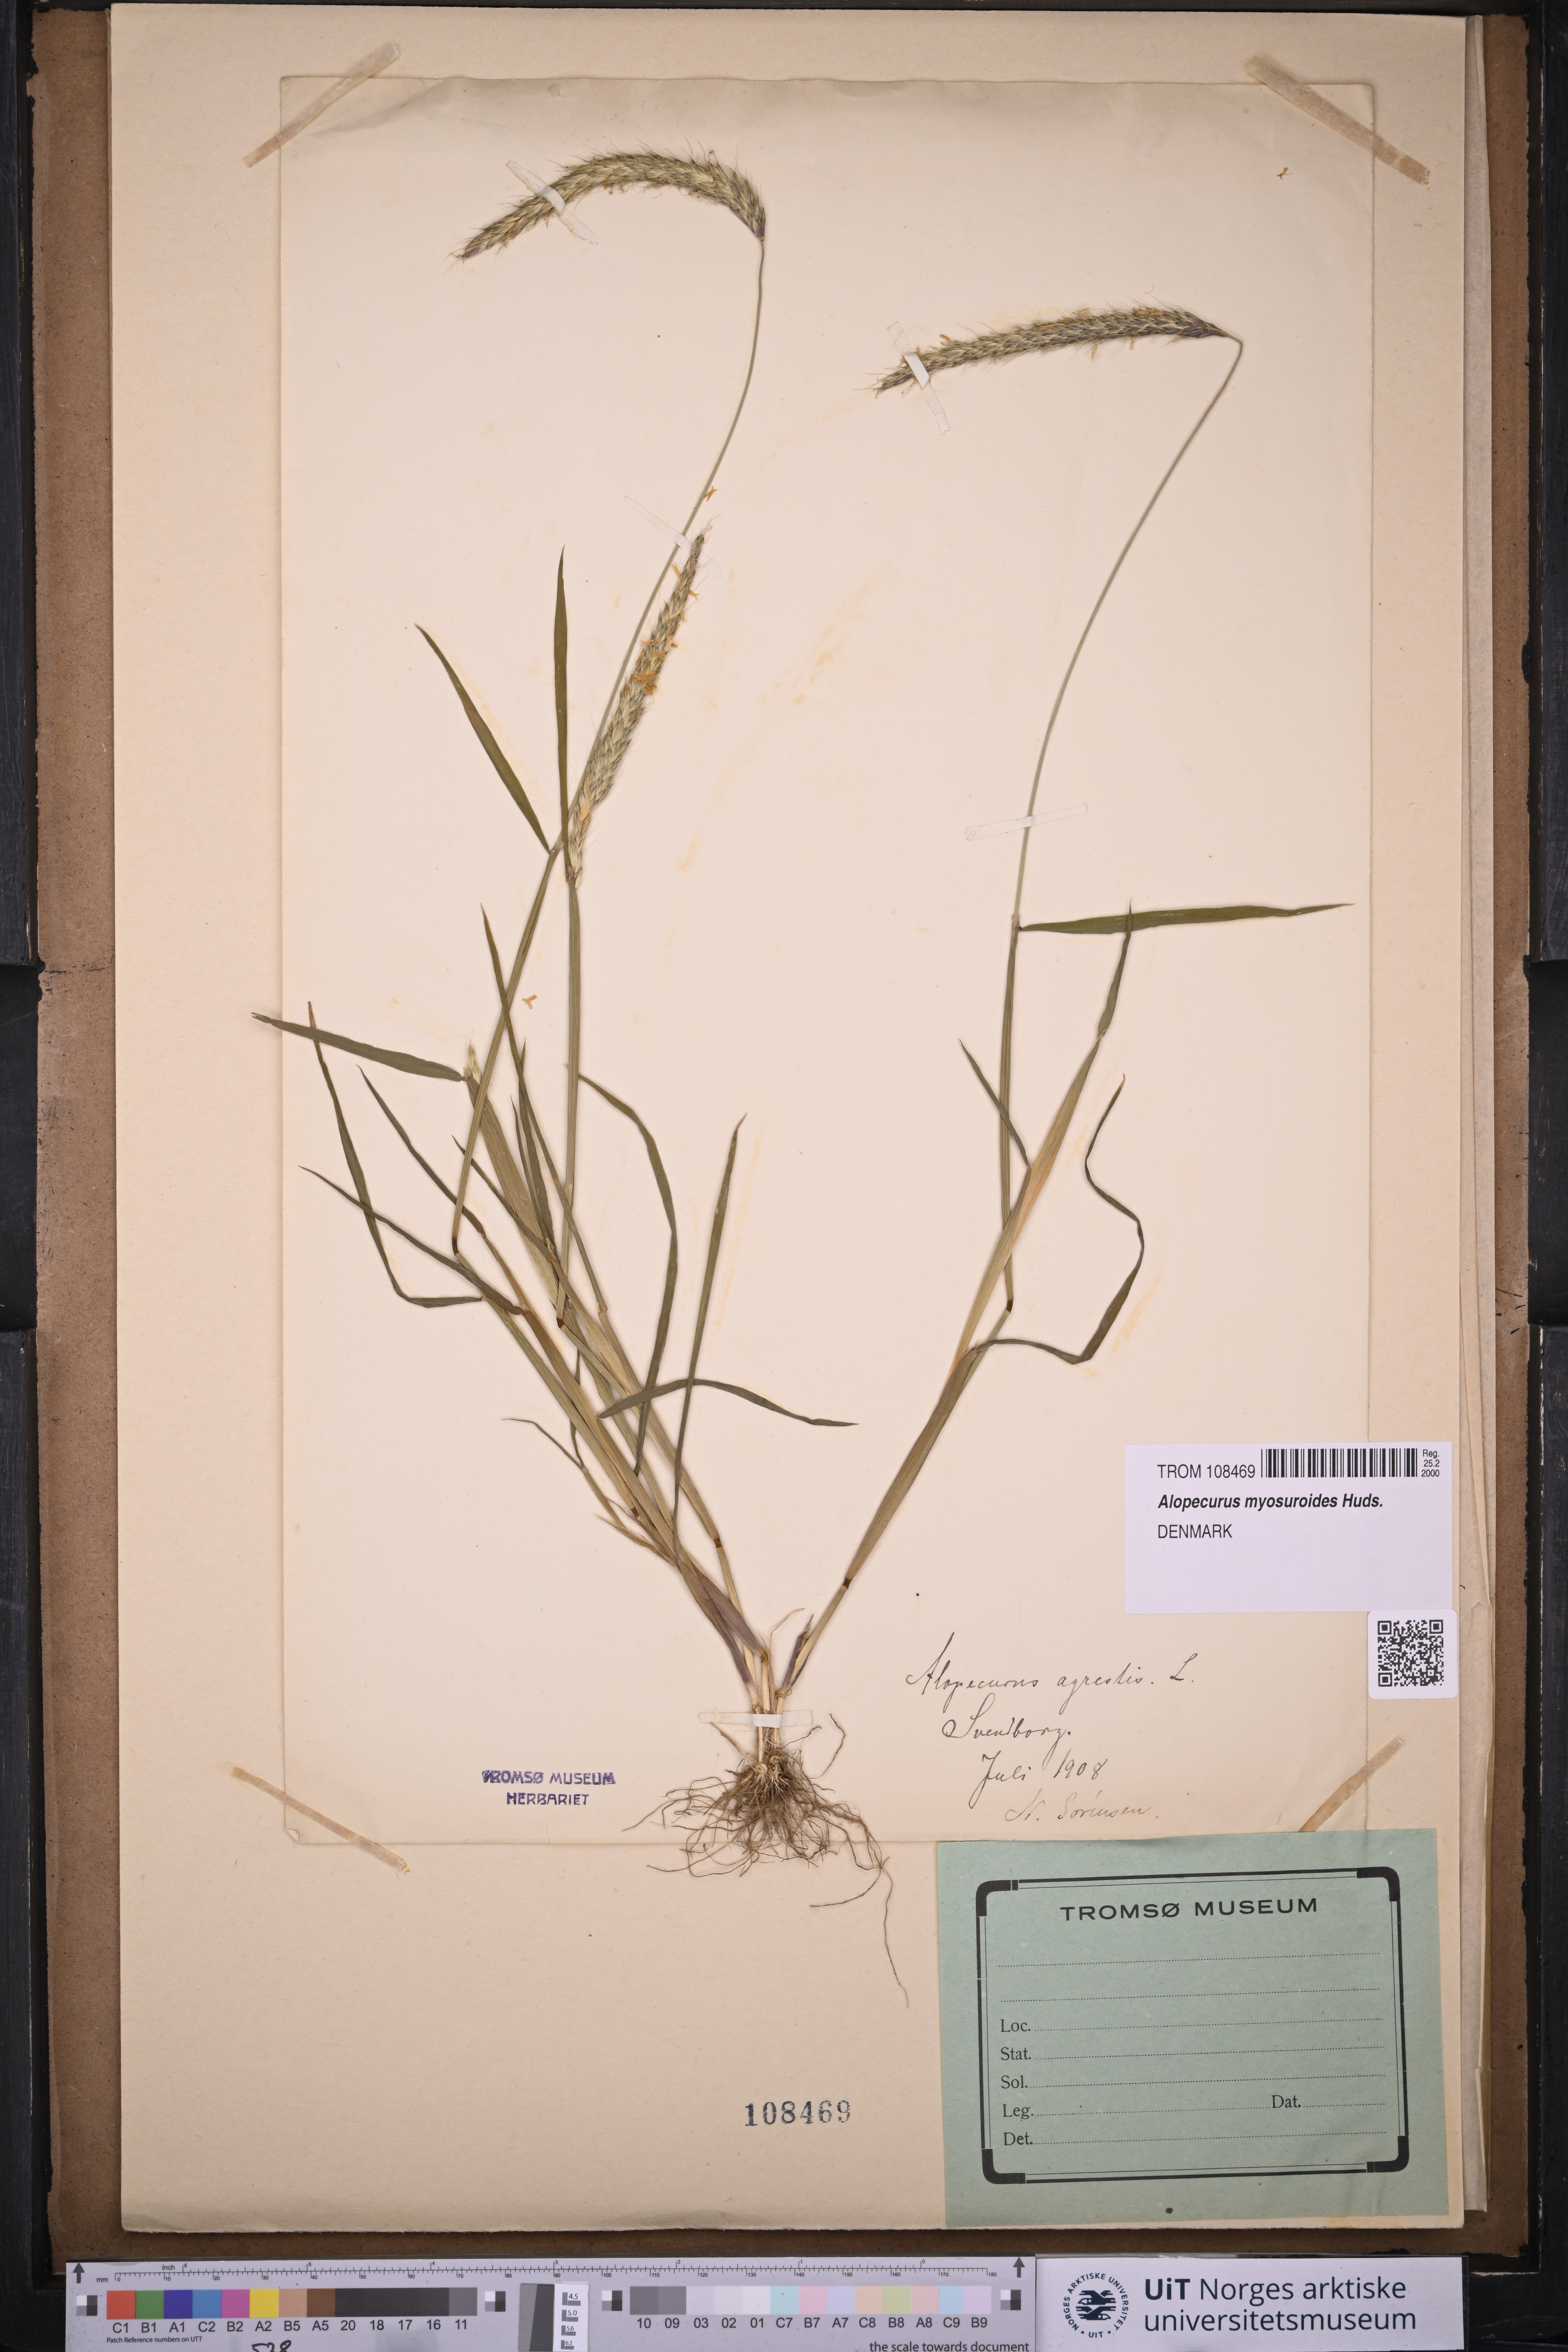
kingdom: Plantae
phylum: Tracheophyta
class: Liliopsida
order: Poales
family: Poaceae
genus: Alopecurus
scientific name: Alopecurus myosuroides
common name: Black-grass
